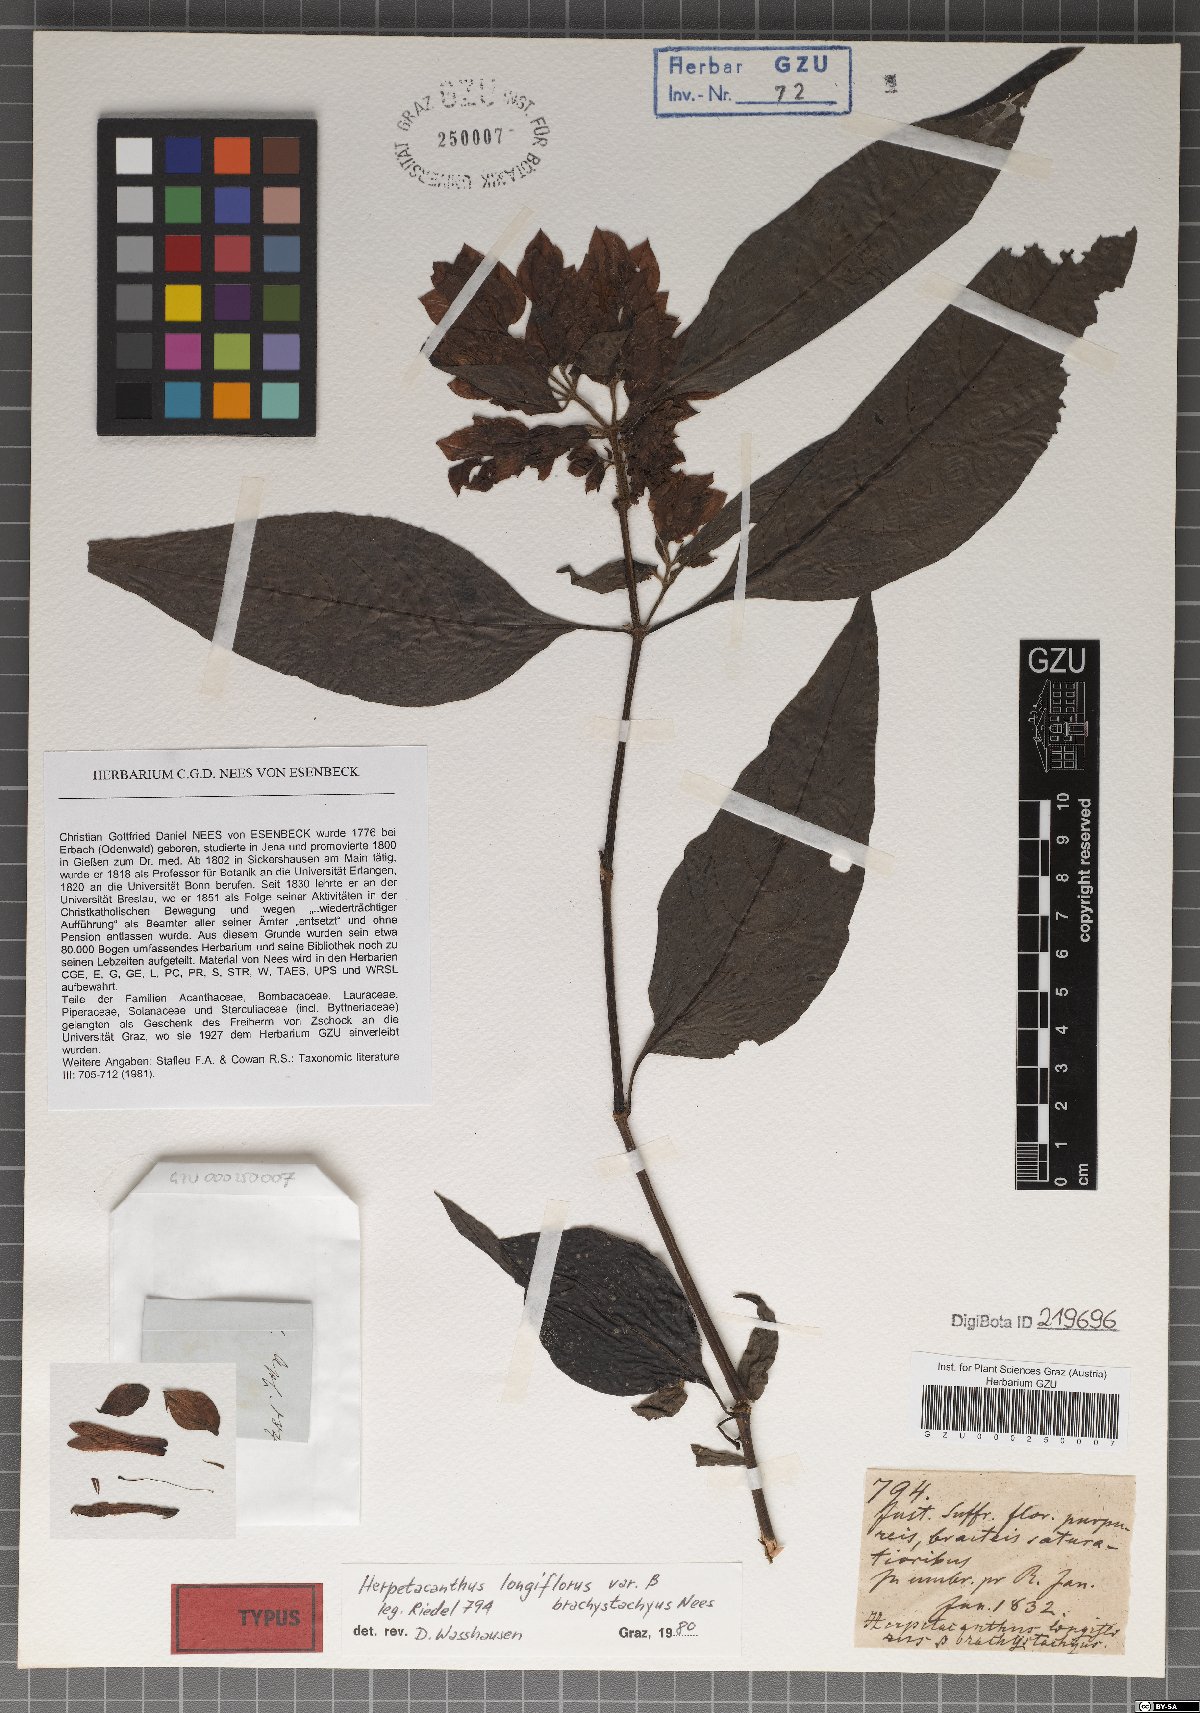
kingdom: Plantae
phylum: Tracheophyta
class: Magnoliopsida
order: Lamiales
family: Acanthaceae
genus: Herpetacanthus
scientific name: Herpetacanthus longiflorus
